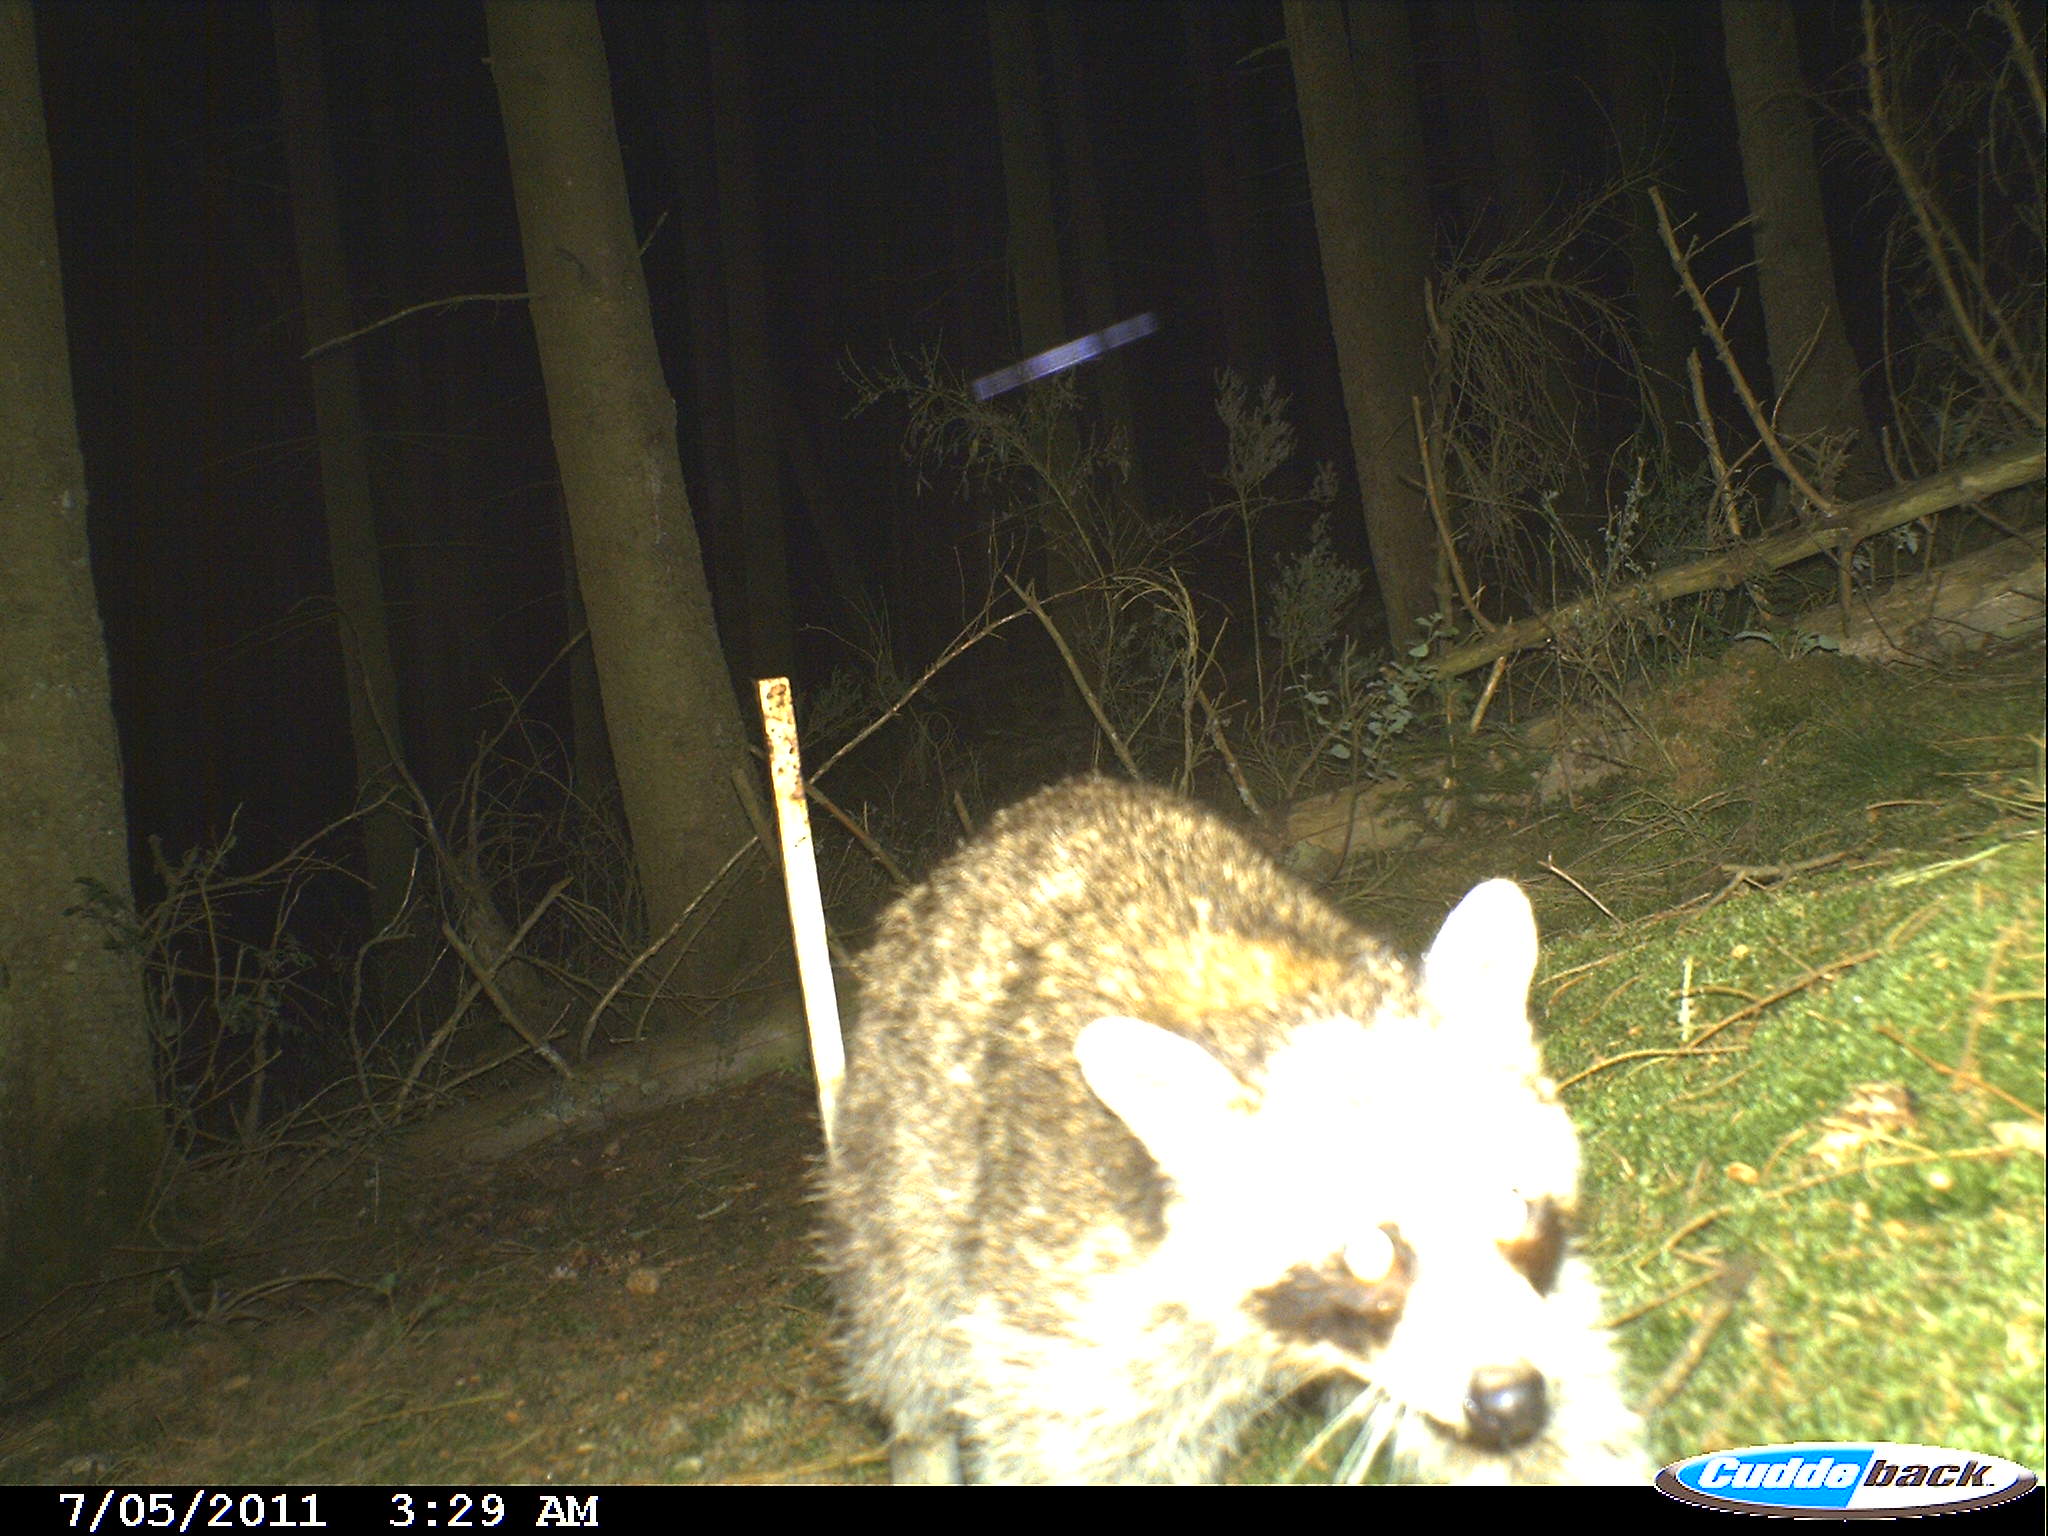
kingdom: Animalia
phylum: Chordata
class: Mammalia
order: Carnivora
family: Procyonidae
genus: Procyon
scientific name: Procyon lotor
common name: Raccoon
